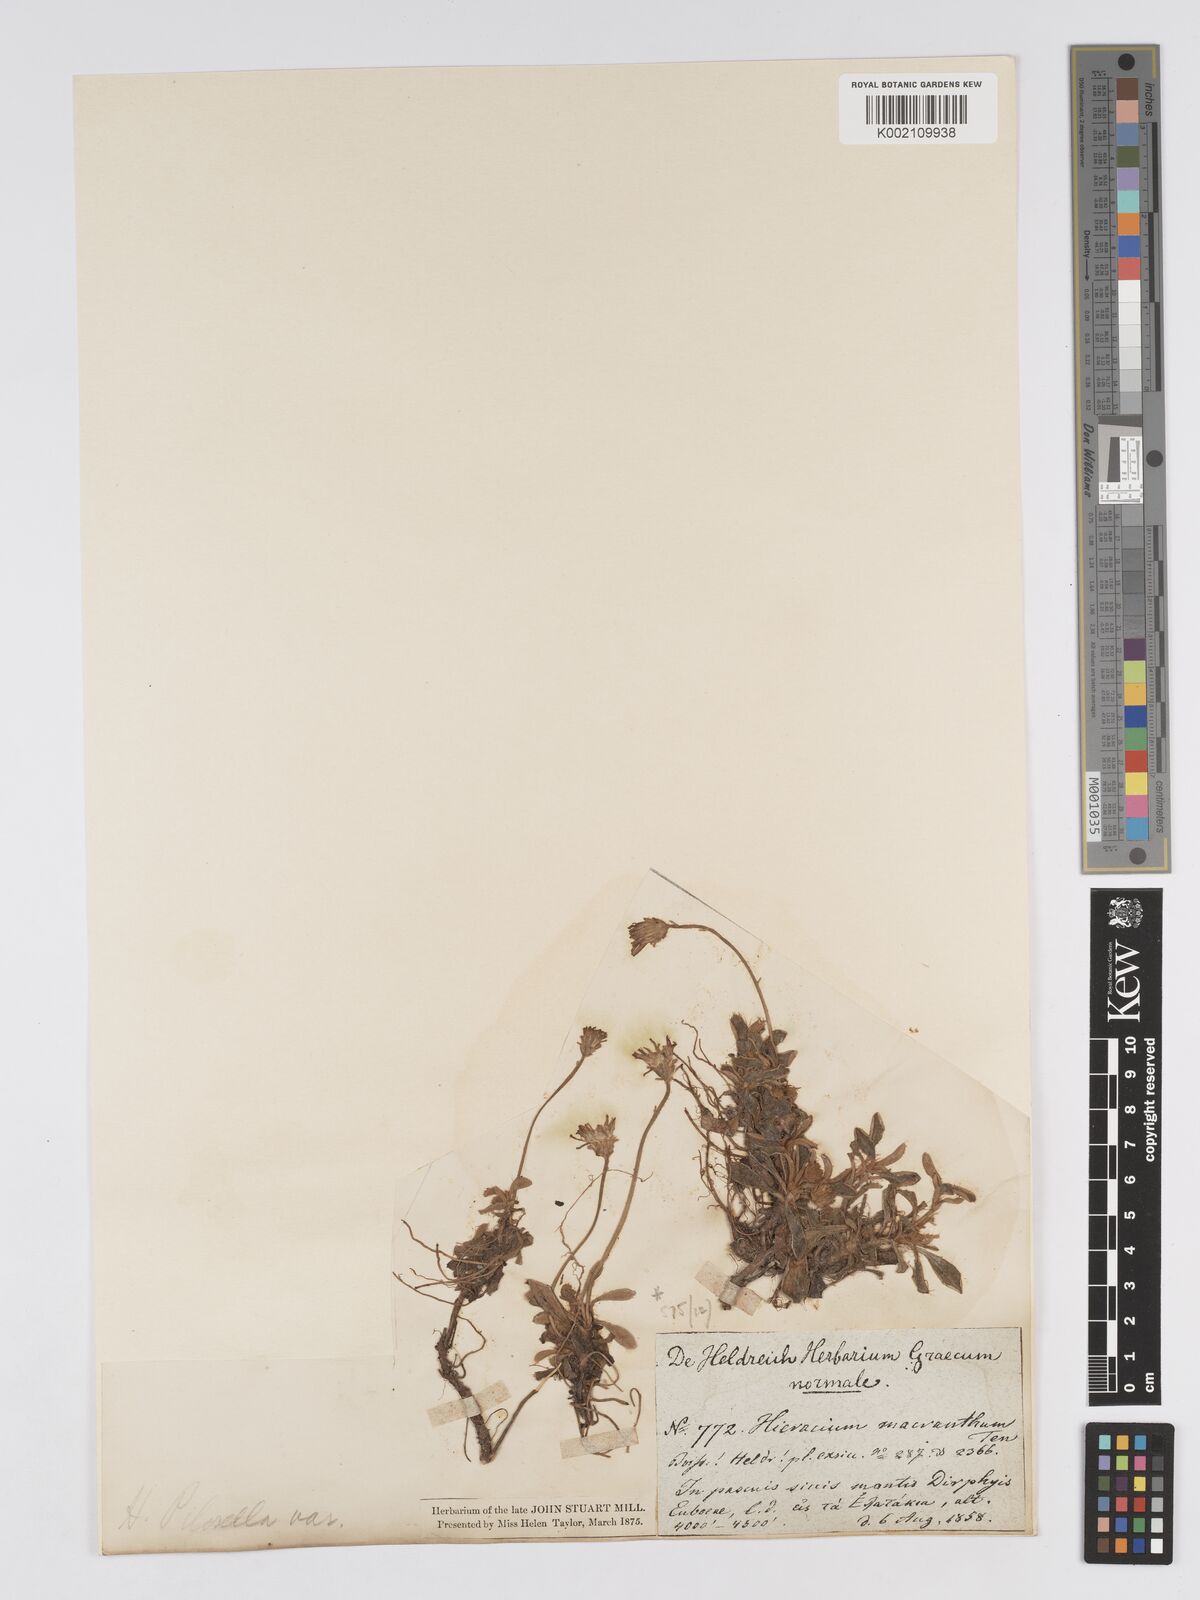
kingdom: Plantae
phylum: Tracheophyta
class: Magnoliopsida
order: Asterales
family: Asteraceae
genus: Pilosella
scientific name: Pilosella hoppeana
